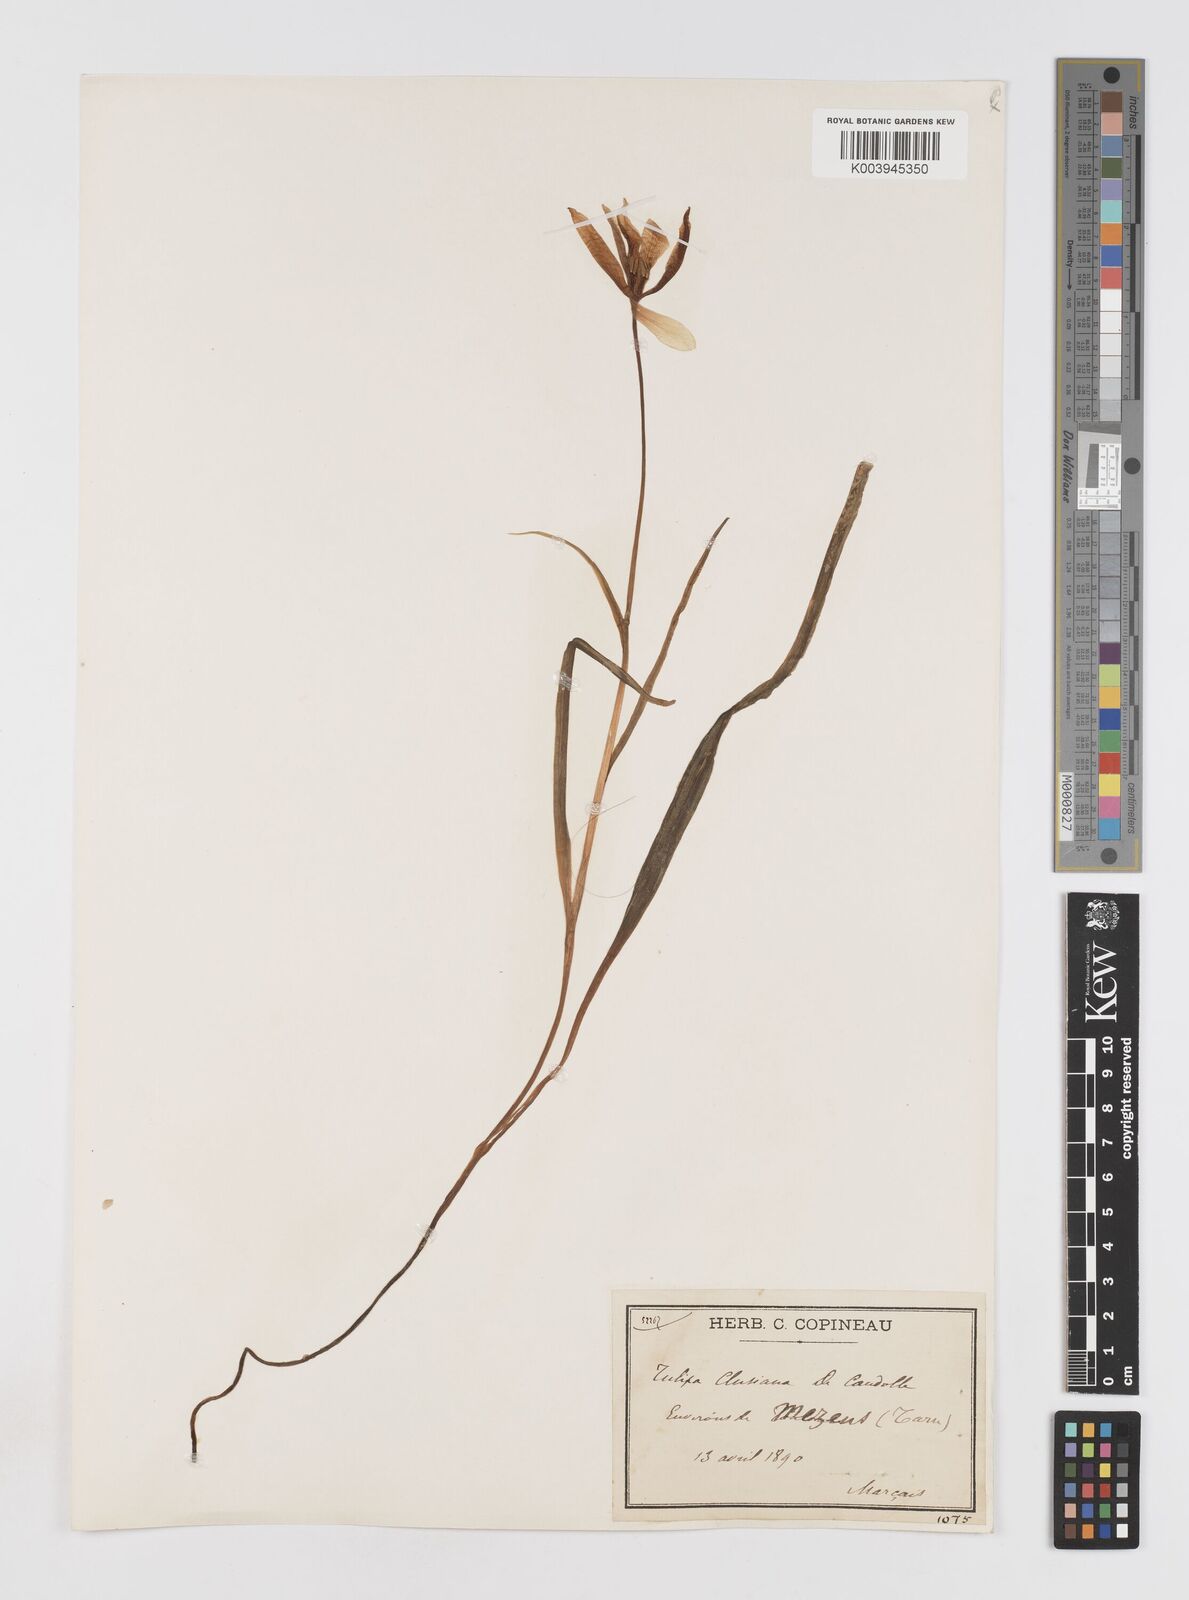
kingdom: Plantae
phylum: Tracheophyta
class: Liliopsida
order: Liliales
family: Liliaceae
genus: Tulipa
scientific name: Tulipa clusiana
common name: Lady tulip
